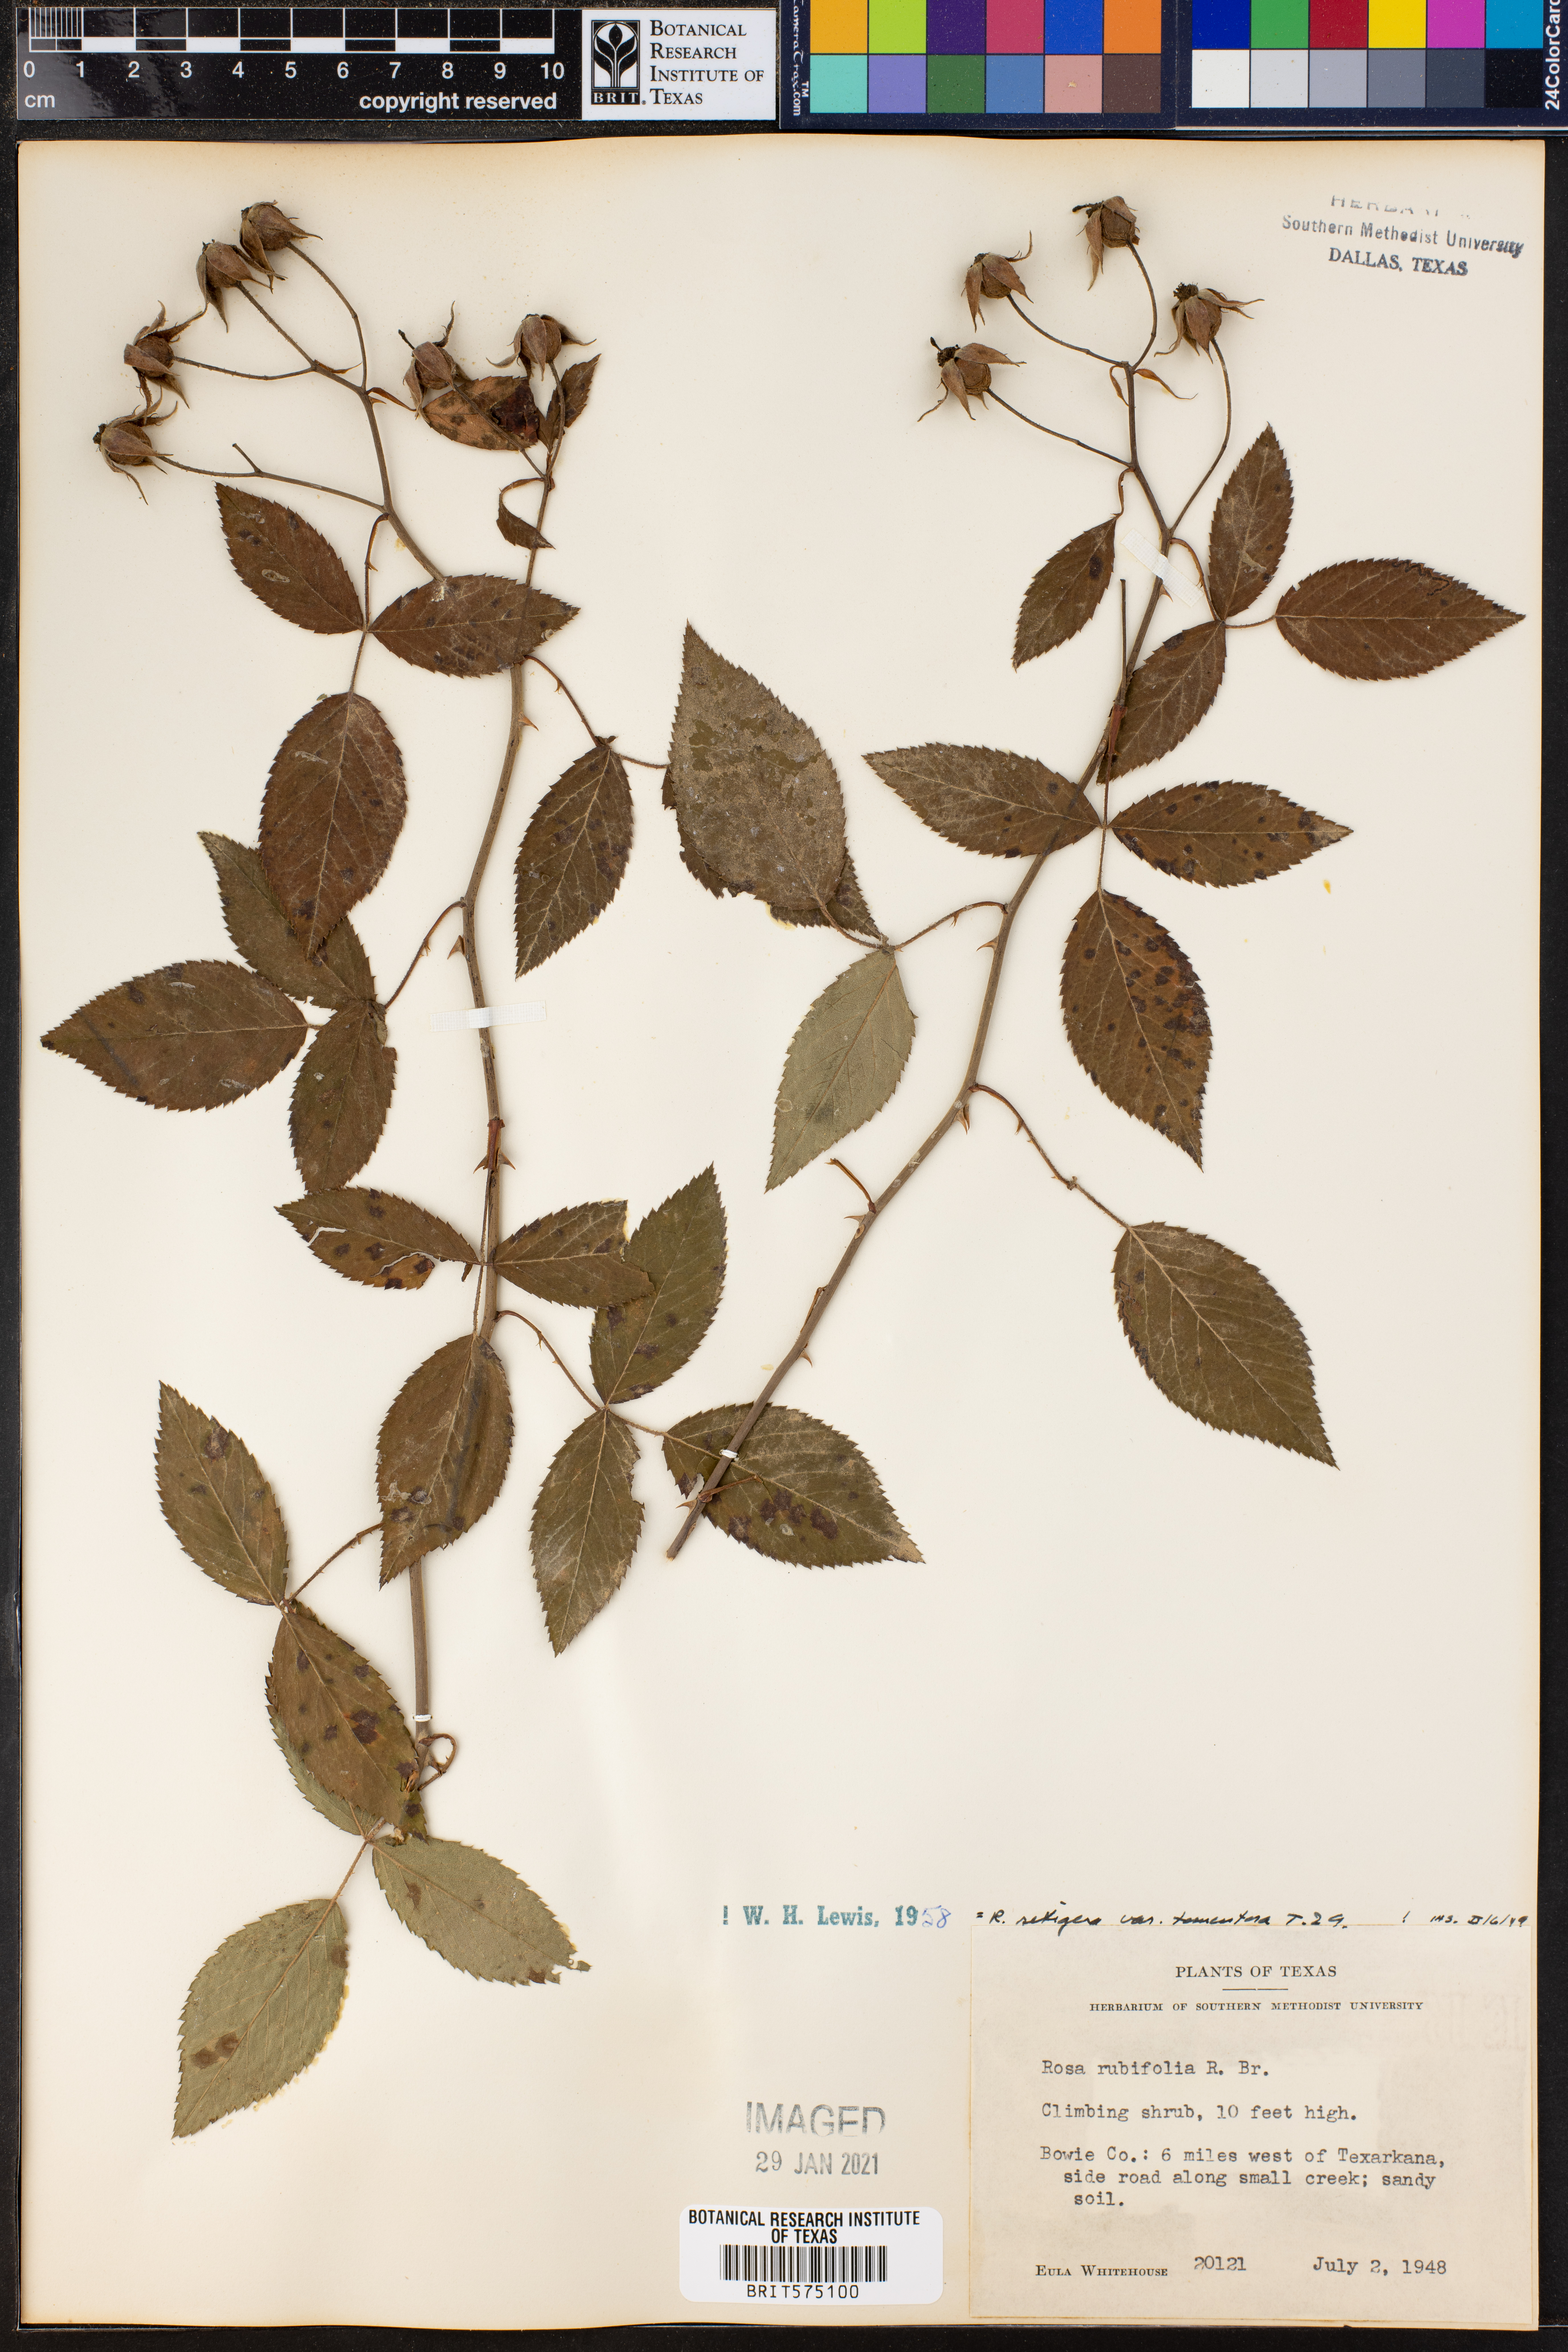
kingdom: Plantae
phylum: Tracheophyta
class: Magnoliopsida
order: Rosales
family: Rosaceae
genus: Rosa
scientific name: Rosa setigera
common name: Prairie rose
